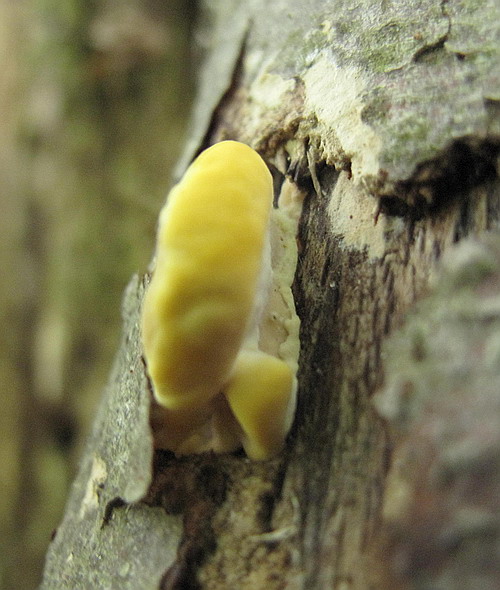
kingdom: Fungi
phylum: Basidiomycota
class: Agaricomycetes
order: Polyporales
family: Steccherinaceae
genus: Antrodiella
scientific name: Antrodiella serpula
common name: gulrandet elastikporesvamp
